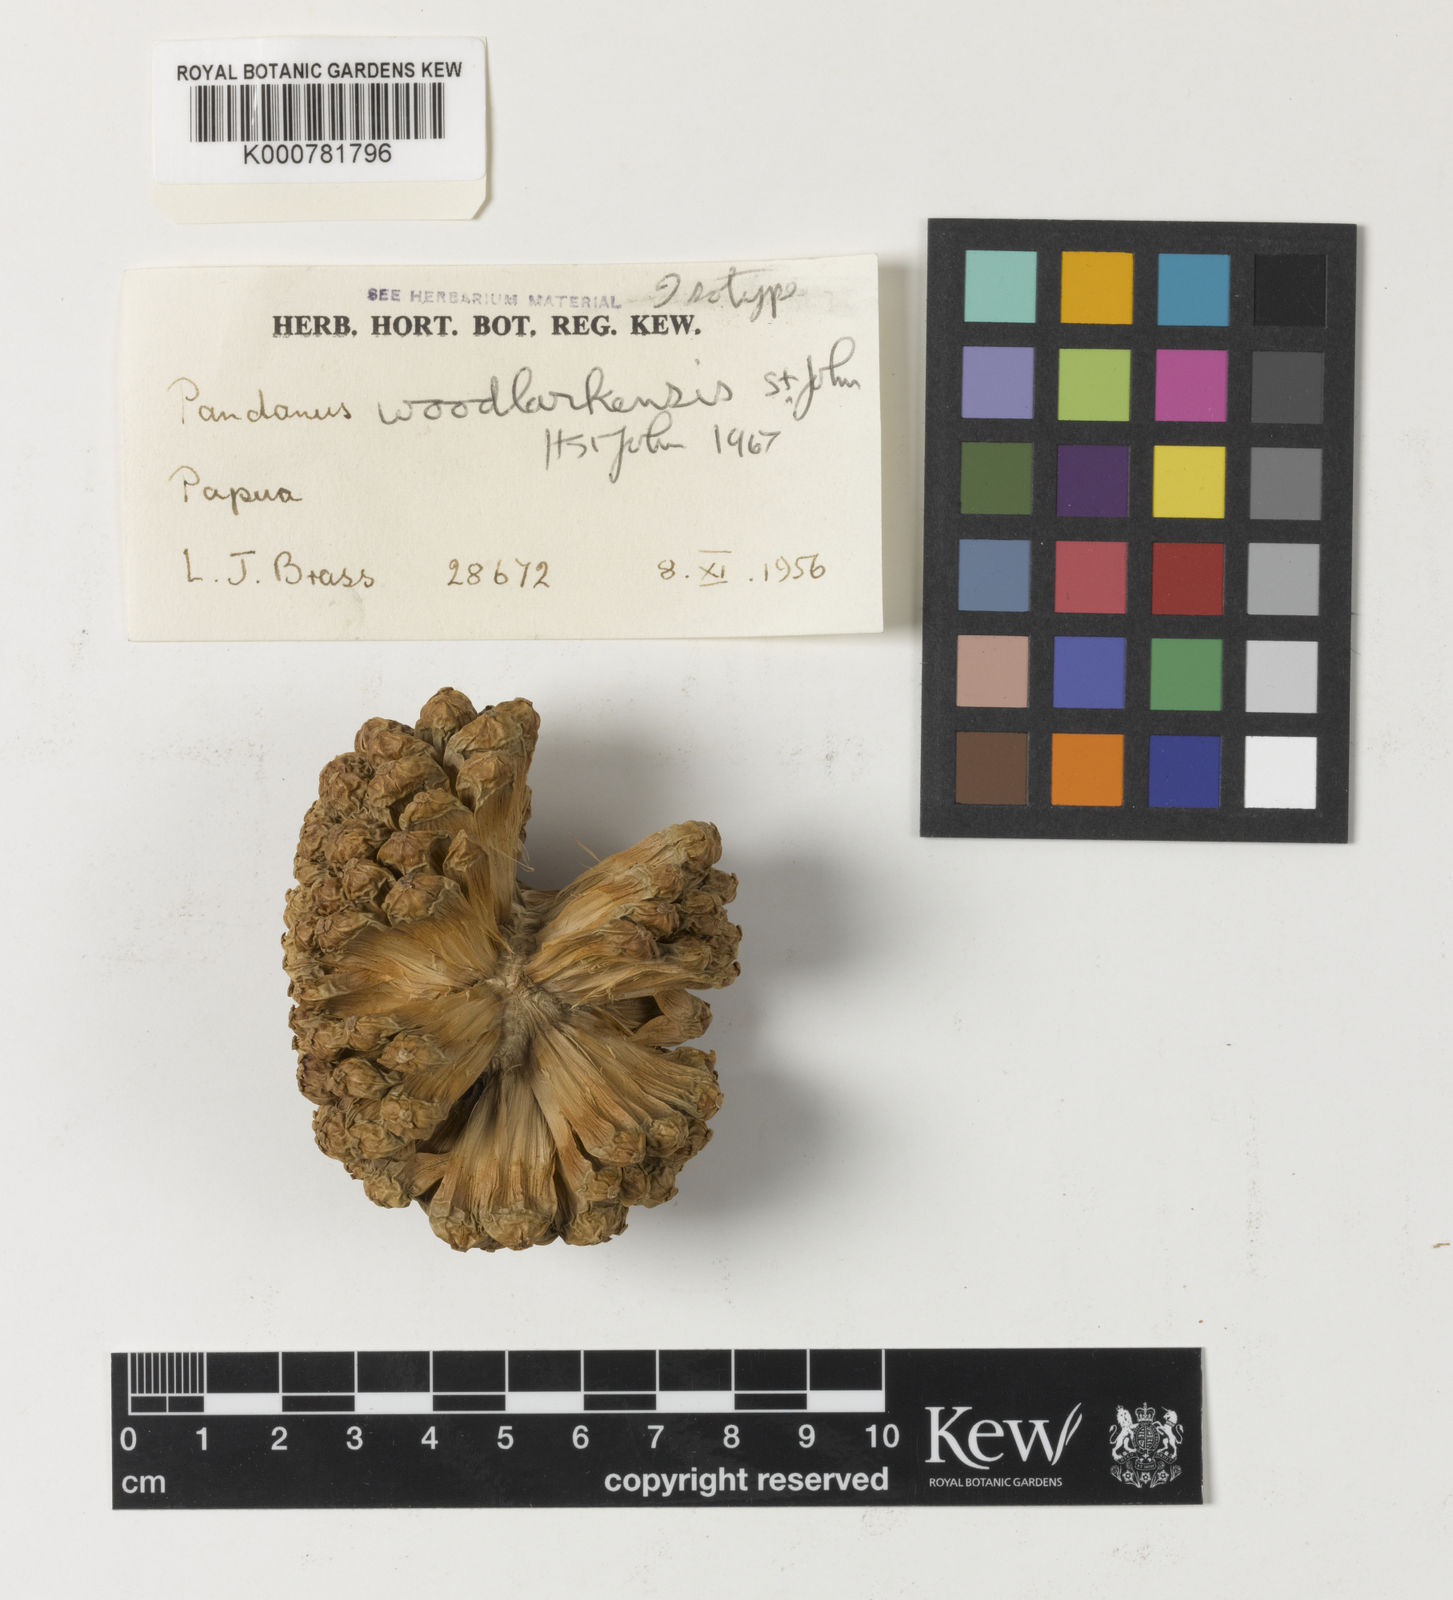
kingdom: Plantae
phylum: Tracheophyta
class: Liliopsida
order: Pandanales
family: Pandanaceae
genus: Pandanus
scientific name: Pandanus
